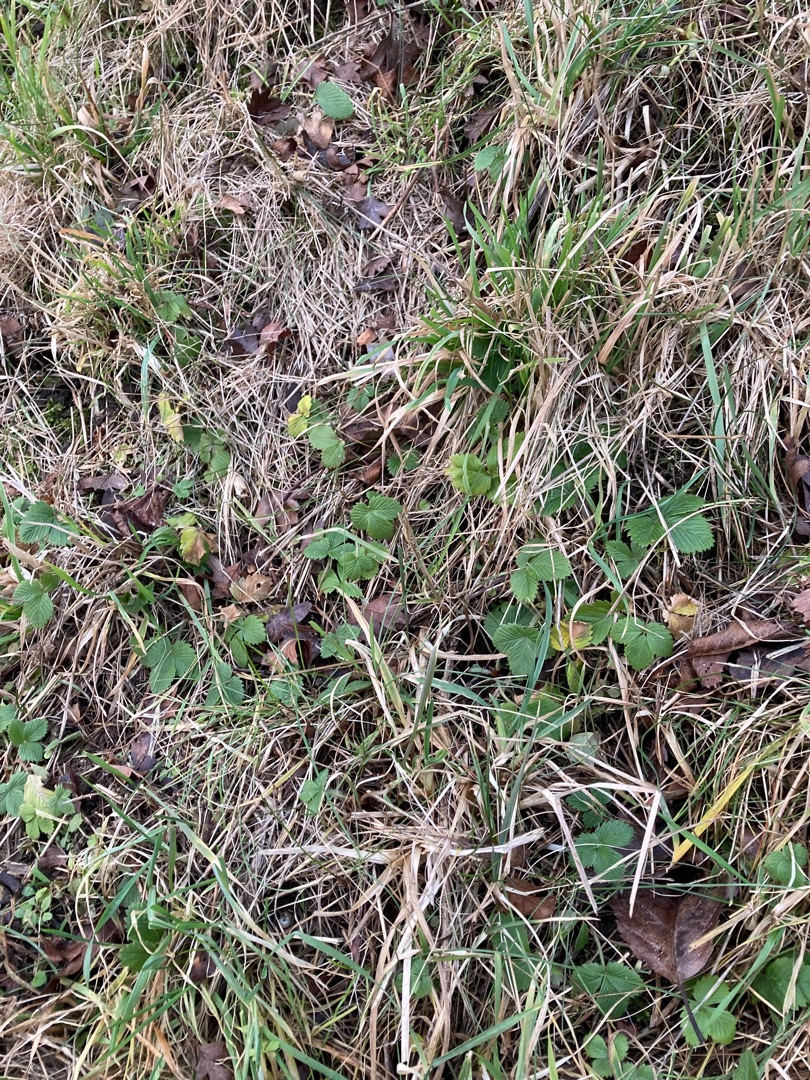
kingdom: Plantae
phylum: Tracheophyta
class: Magnoliopsida
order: Rosales
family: Rosaceae
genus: Fragaria
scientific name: Fragaria vesca
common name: Skov-jordbær
